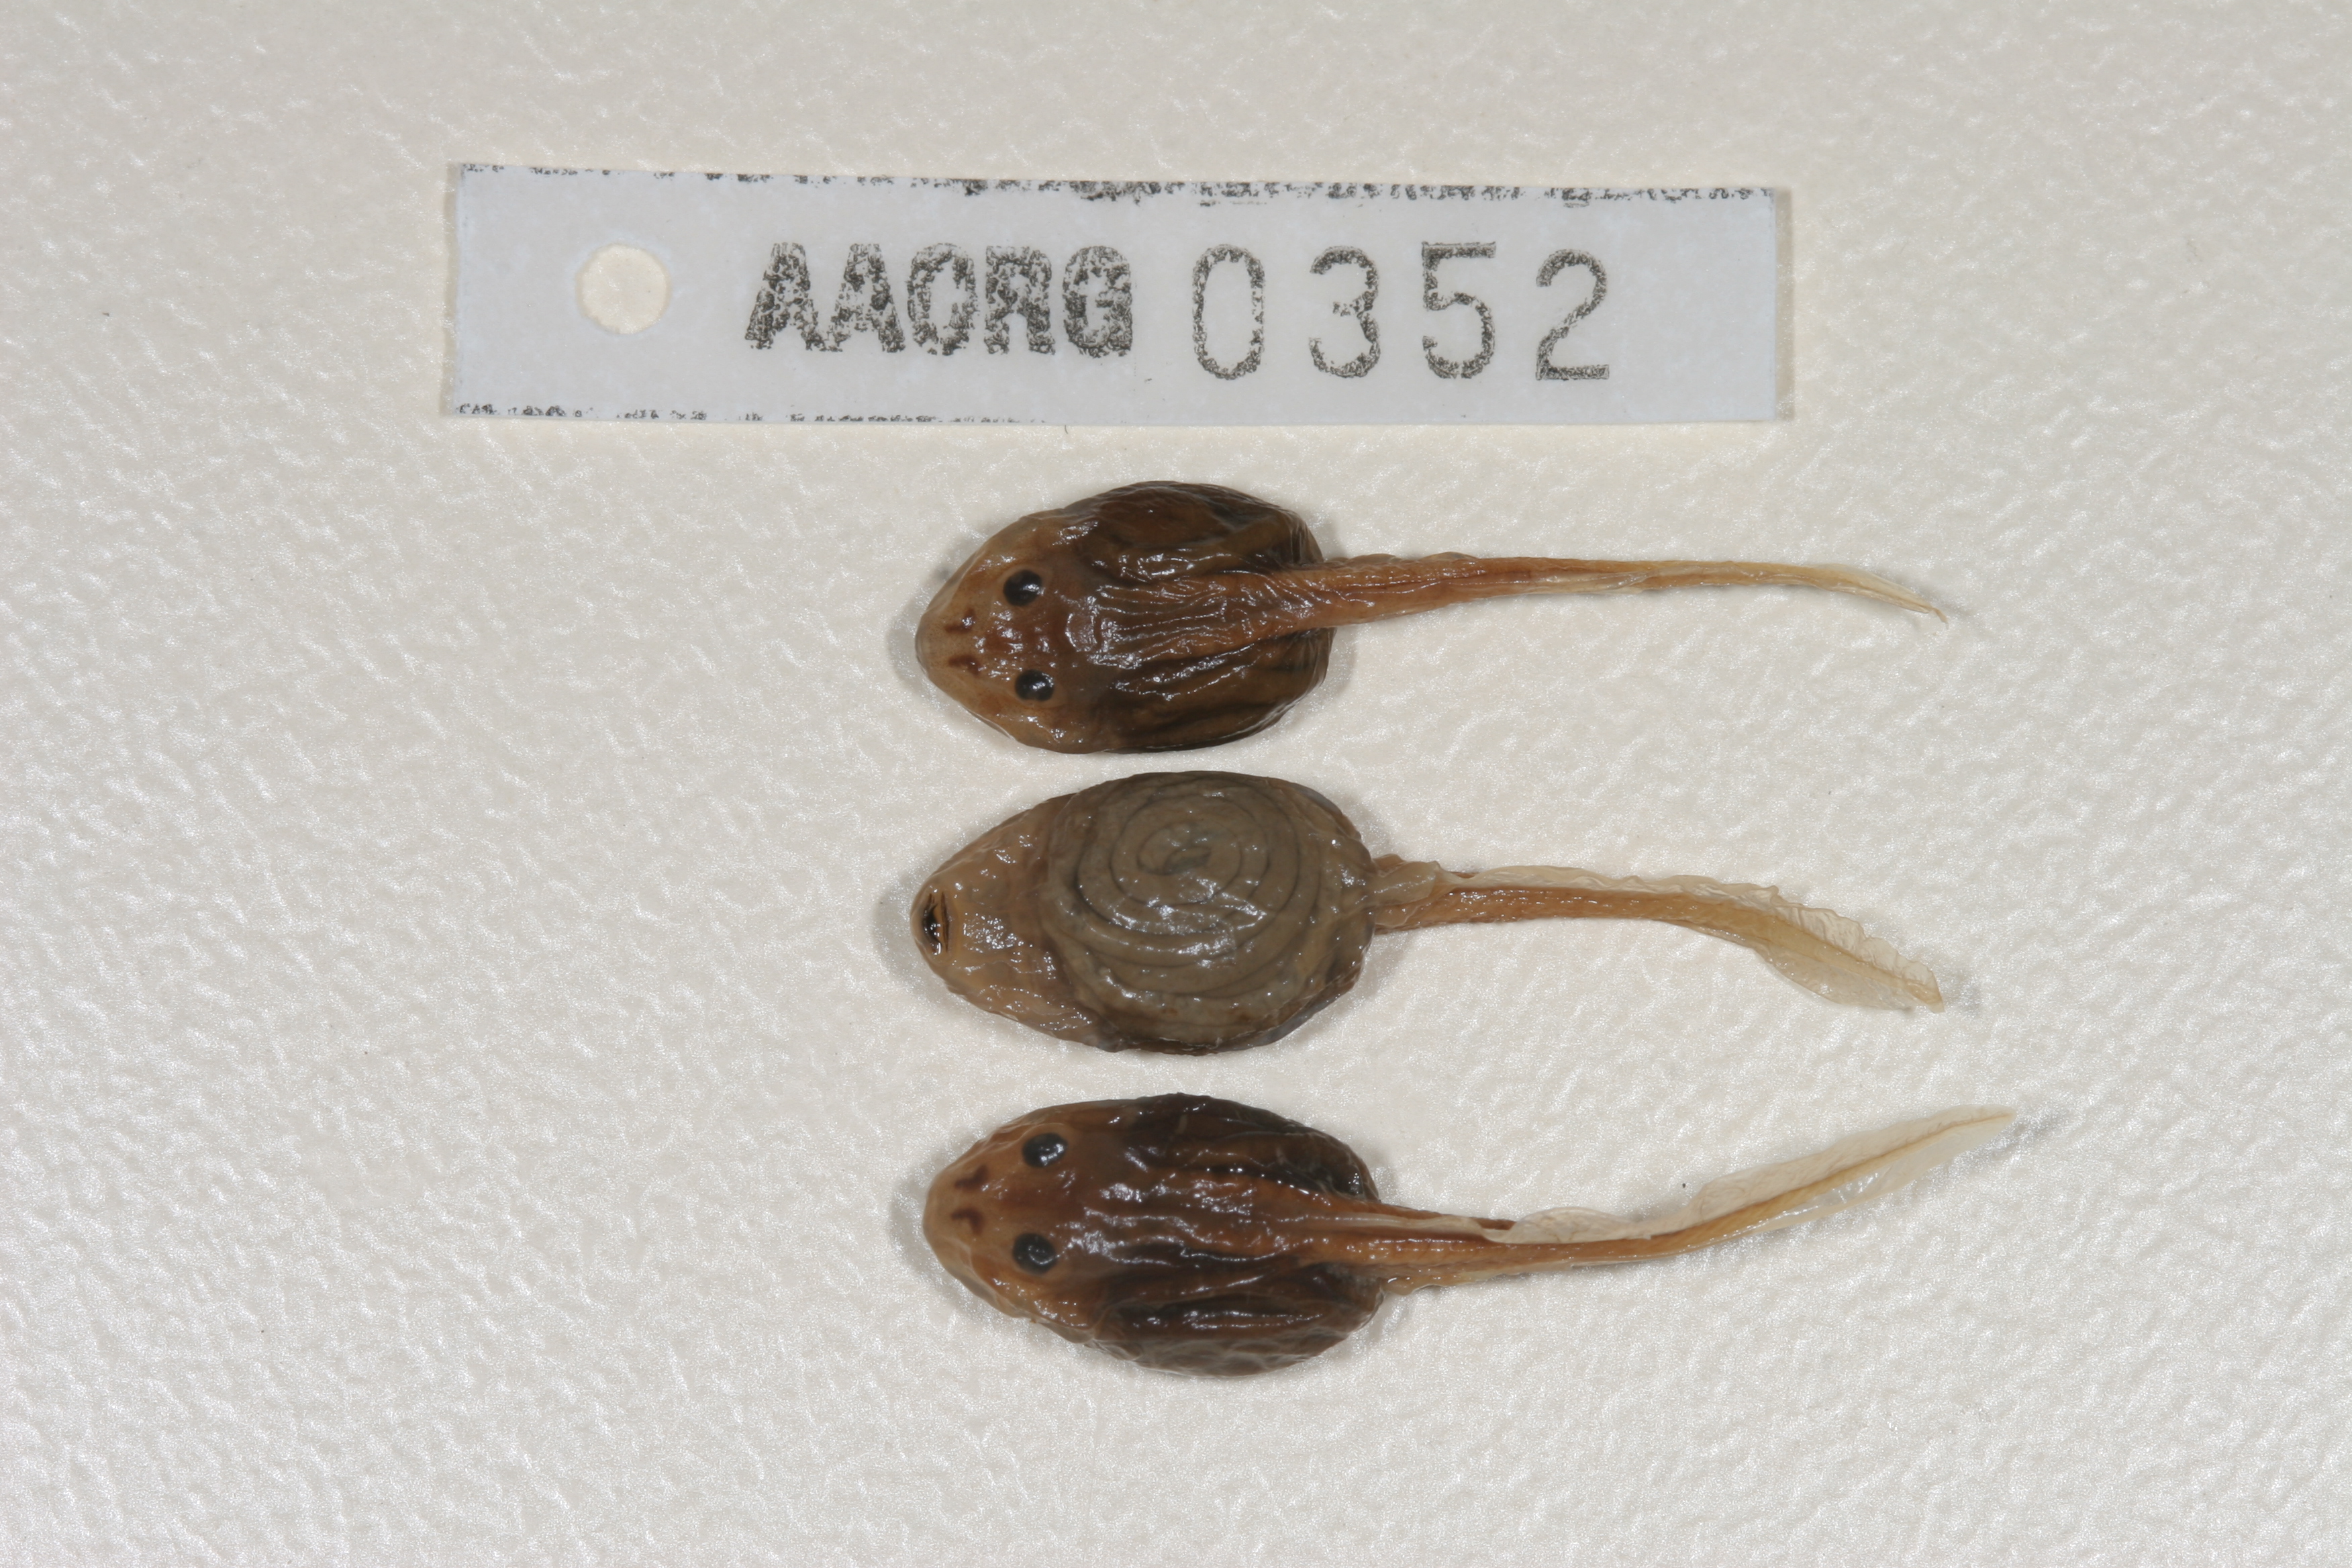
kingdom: Animalia
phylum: Chordata
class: Amphibia
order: Anura
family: Pyxicephalidae
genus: Tomopterna
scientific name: Tomopterna cryptotis
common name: Catequero bullfrog
